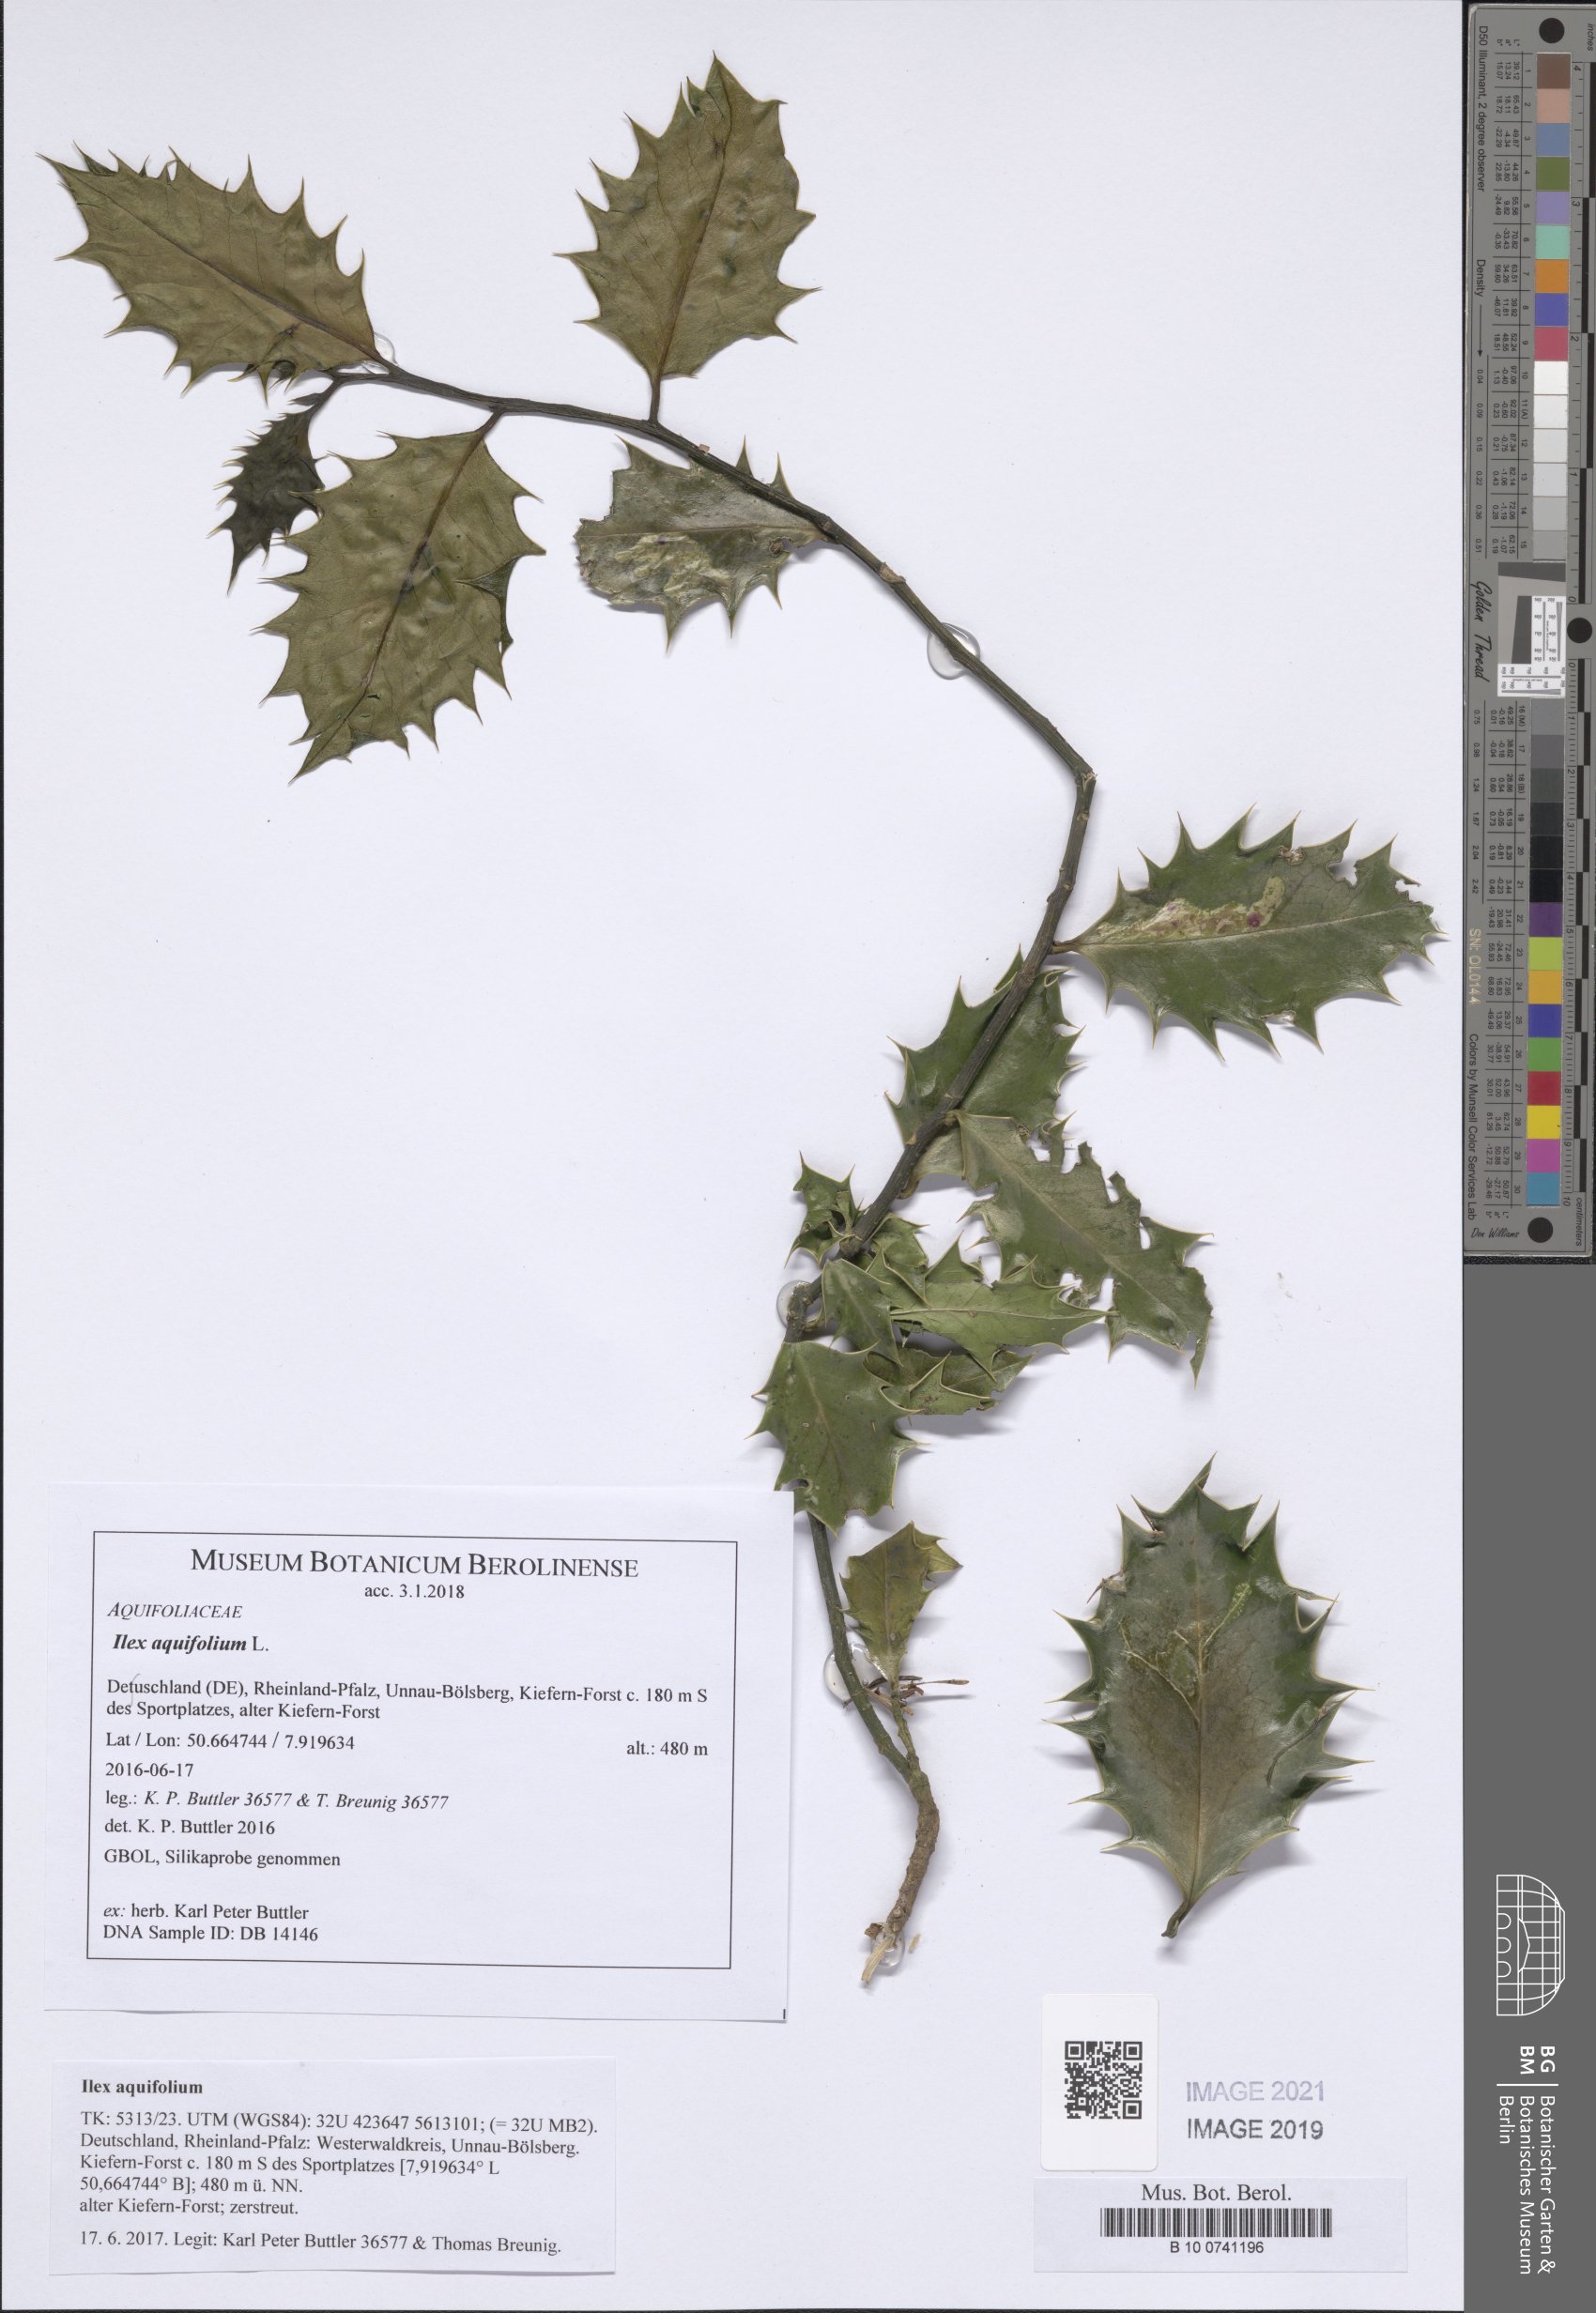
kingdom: Plantae
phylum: Tracheophyta
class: Magnoliopsida
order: Aquifoliales
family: Aquifoliaceae
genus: Ilex
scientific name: Ilex aquifolium
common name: English holly
